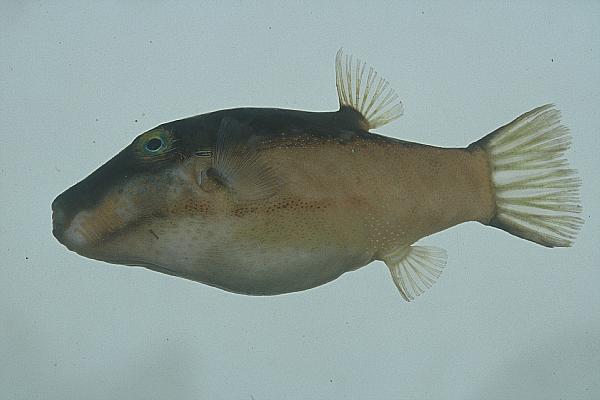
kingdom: Animalia
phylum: Chordata
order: Tetraodontiformes
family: Tetraodontidae
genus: Canthigaster
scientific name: Canthigaster smithae
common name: Bicolored toby
